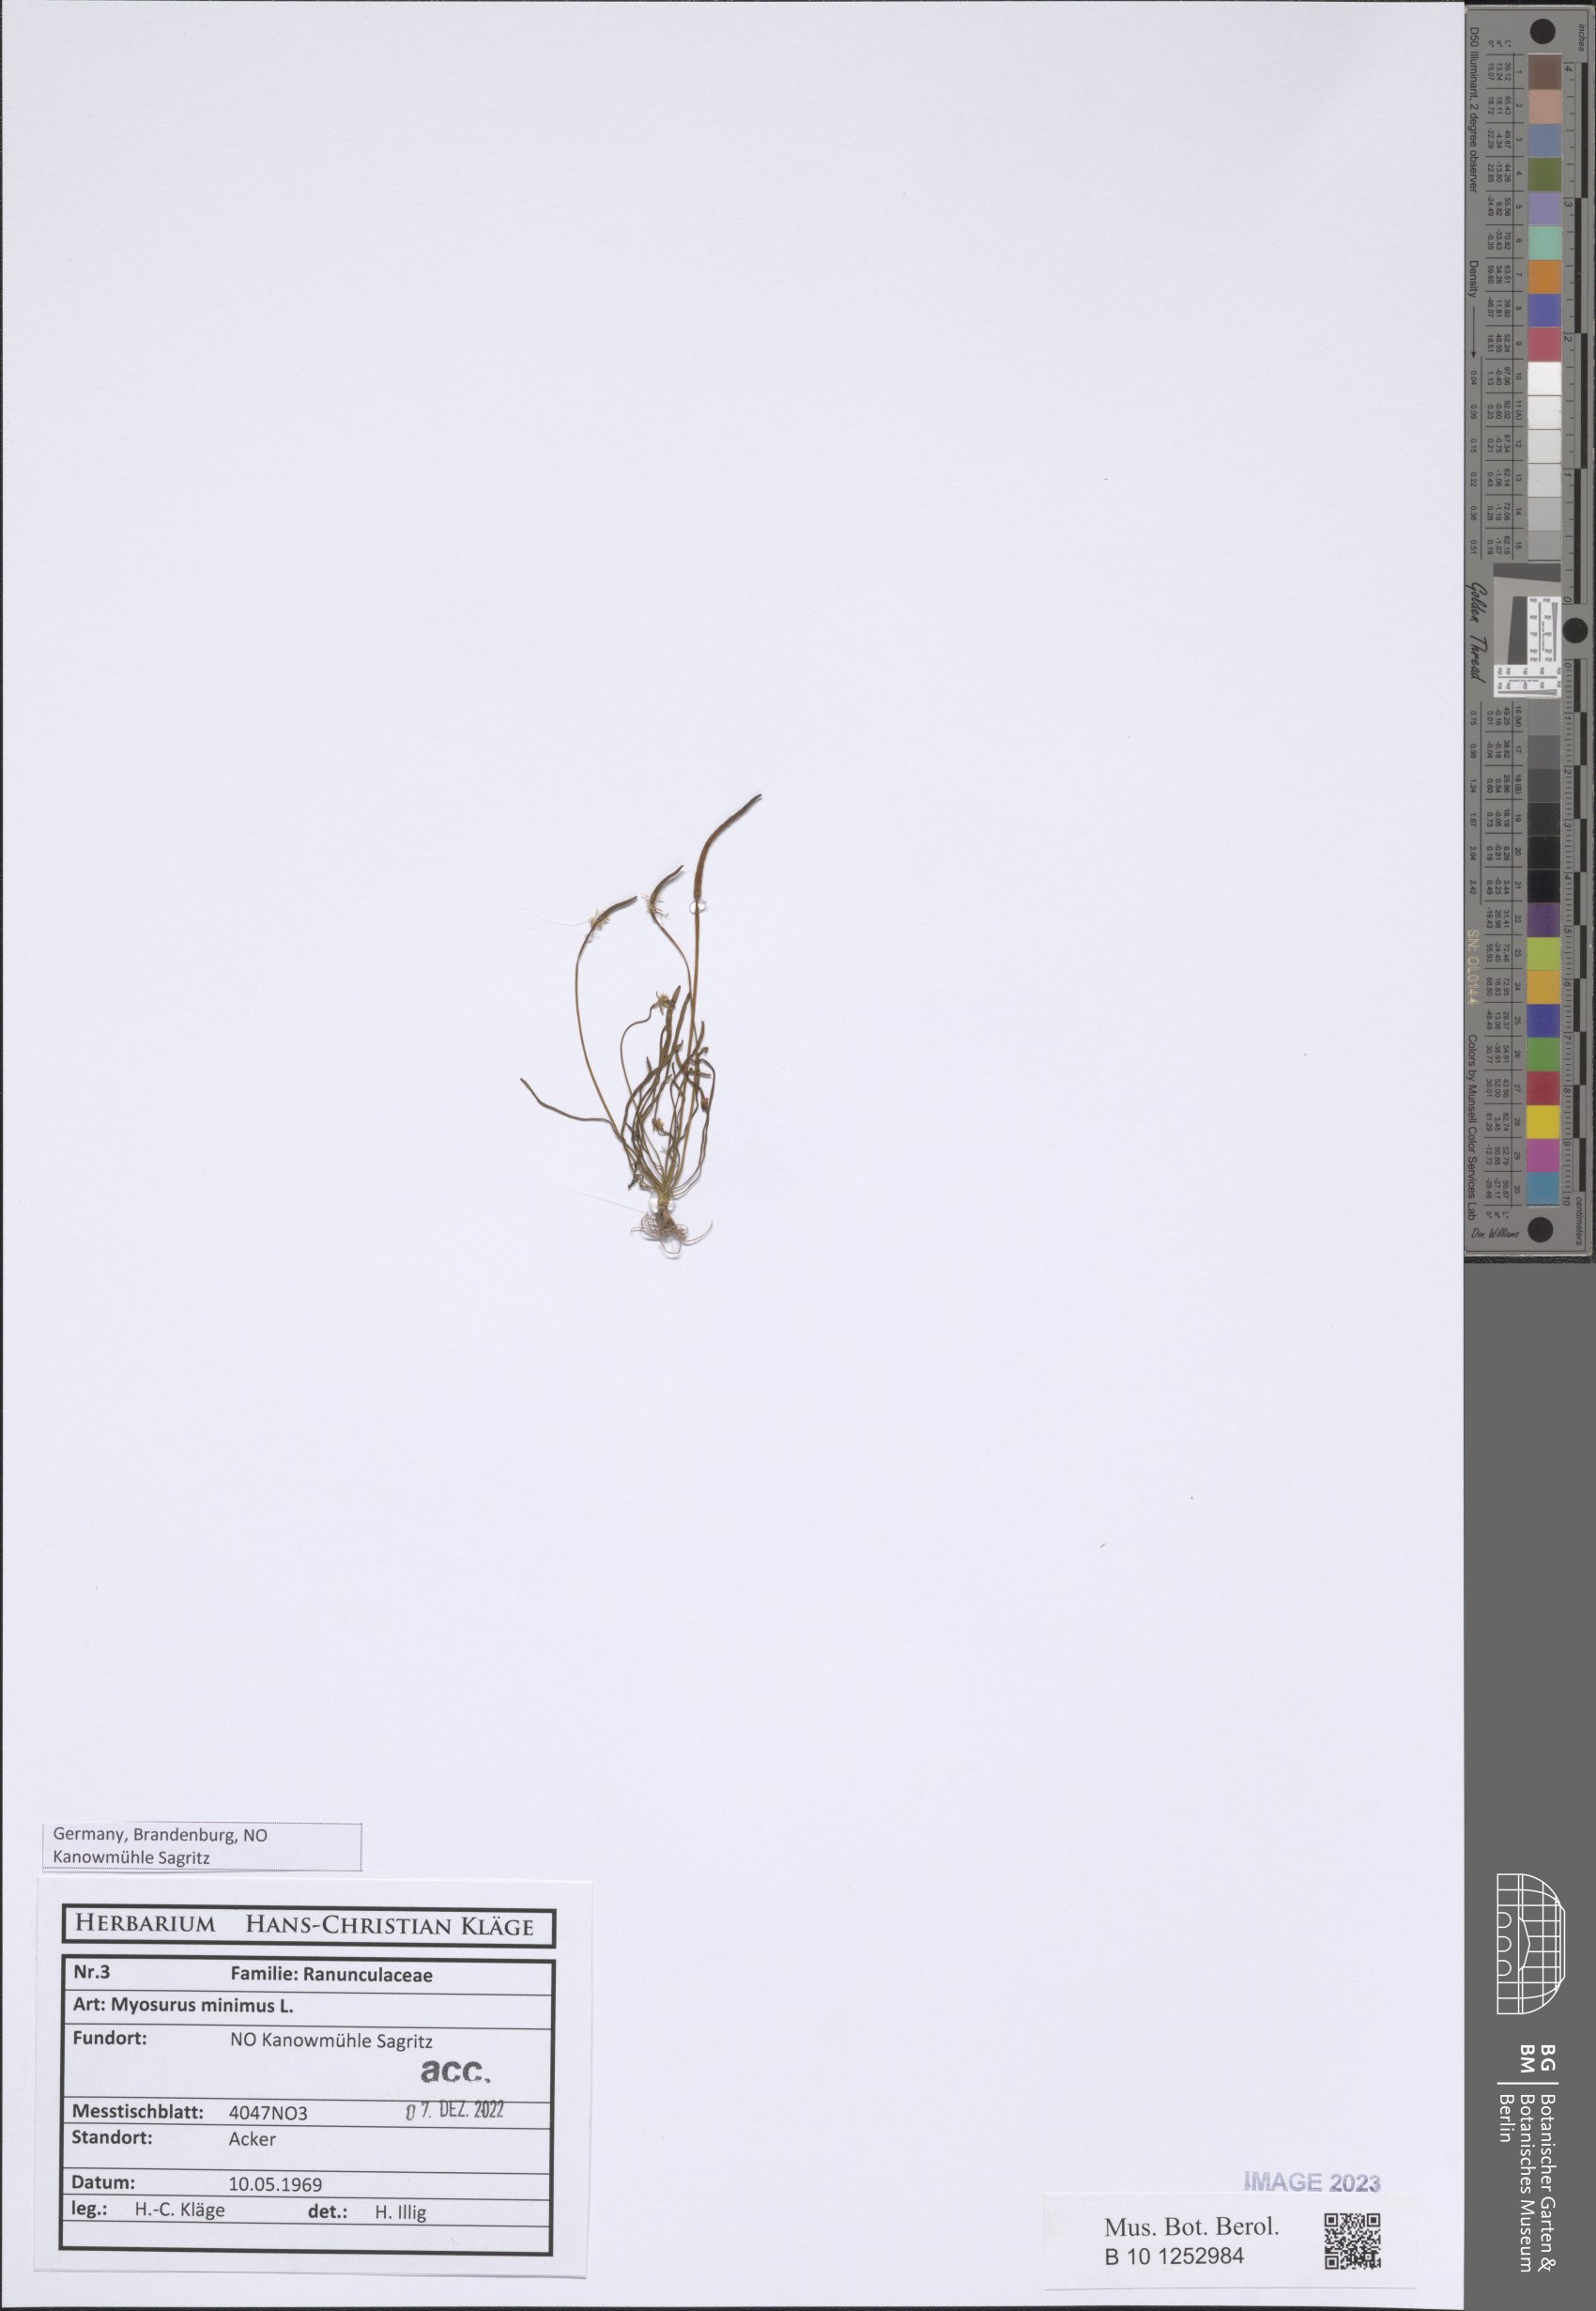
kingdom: Plantae
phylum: Tracheophyta
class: Magnoliopsida
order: Ranunculales
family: Ranunculaceae
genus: Myosurus
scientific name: Myosurus minimus
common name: Mousetail
